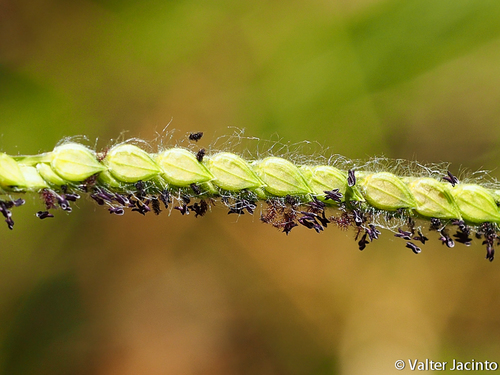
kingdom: Plantae
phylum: Tracheophyta
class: Liliopsida
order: Poales
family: Poaceae
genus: Paspalum
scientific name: Paspalum dilatatum
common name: Dallisgrass
